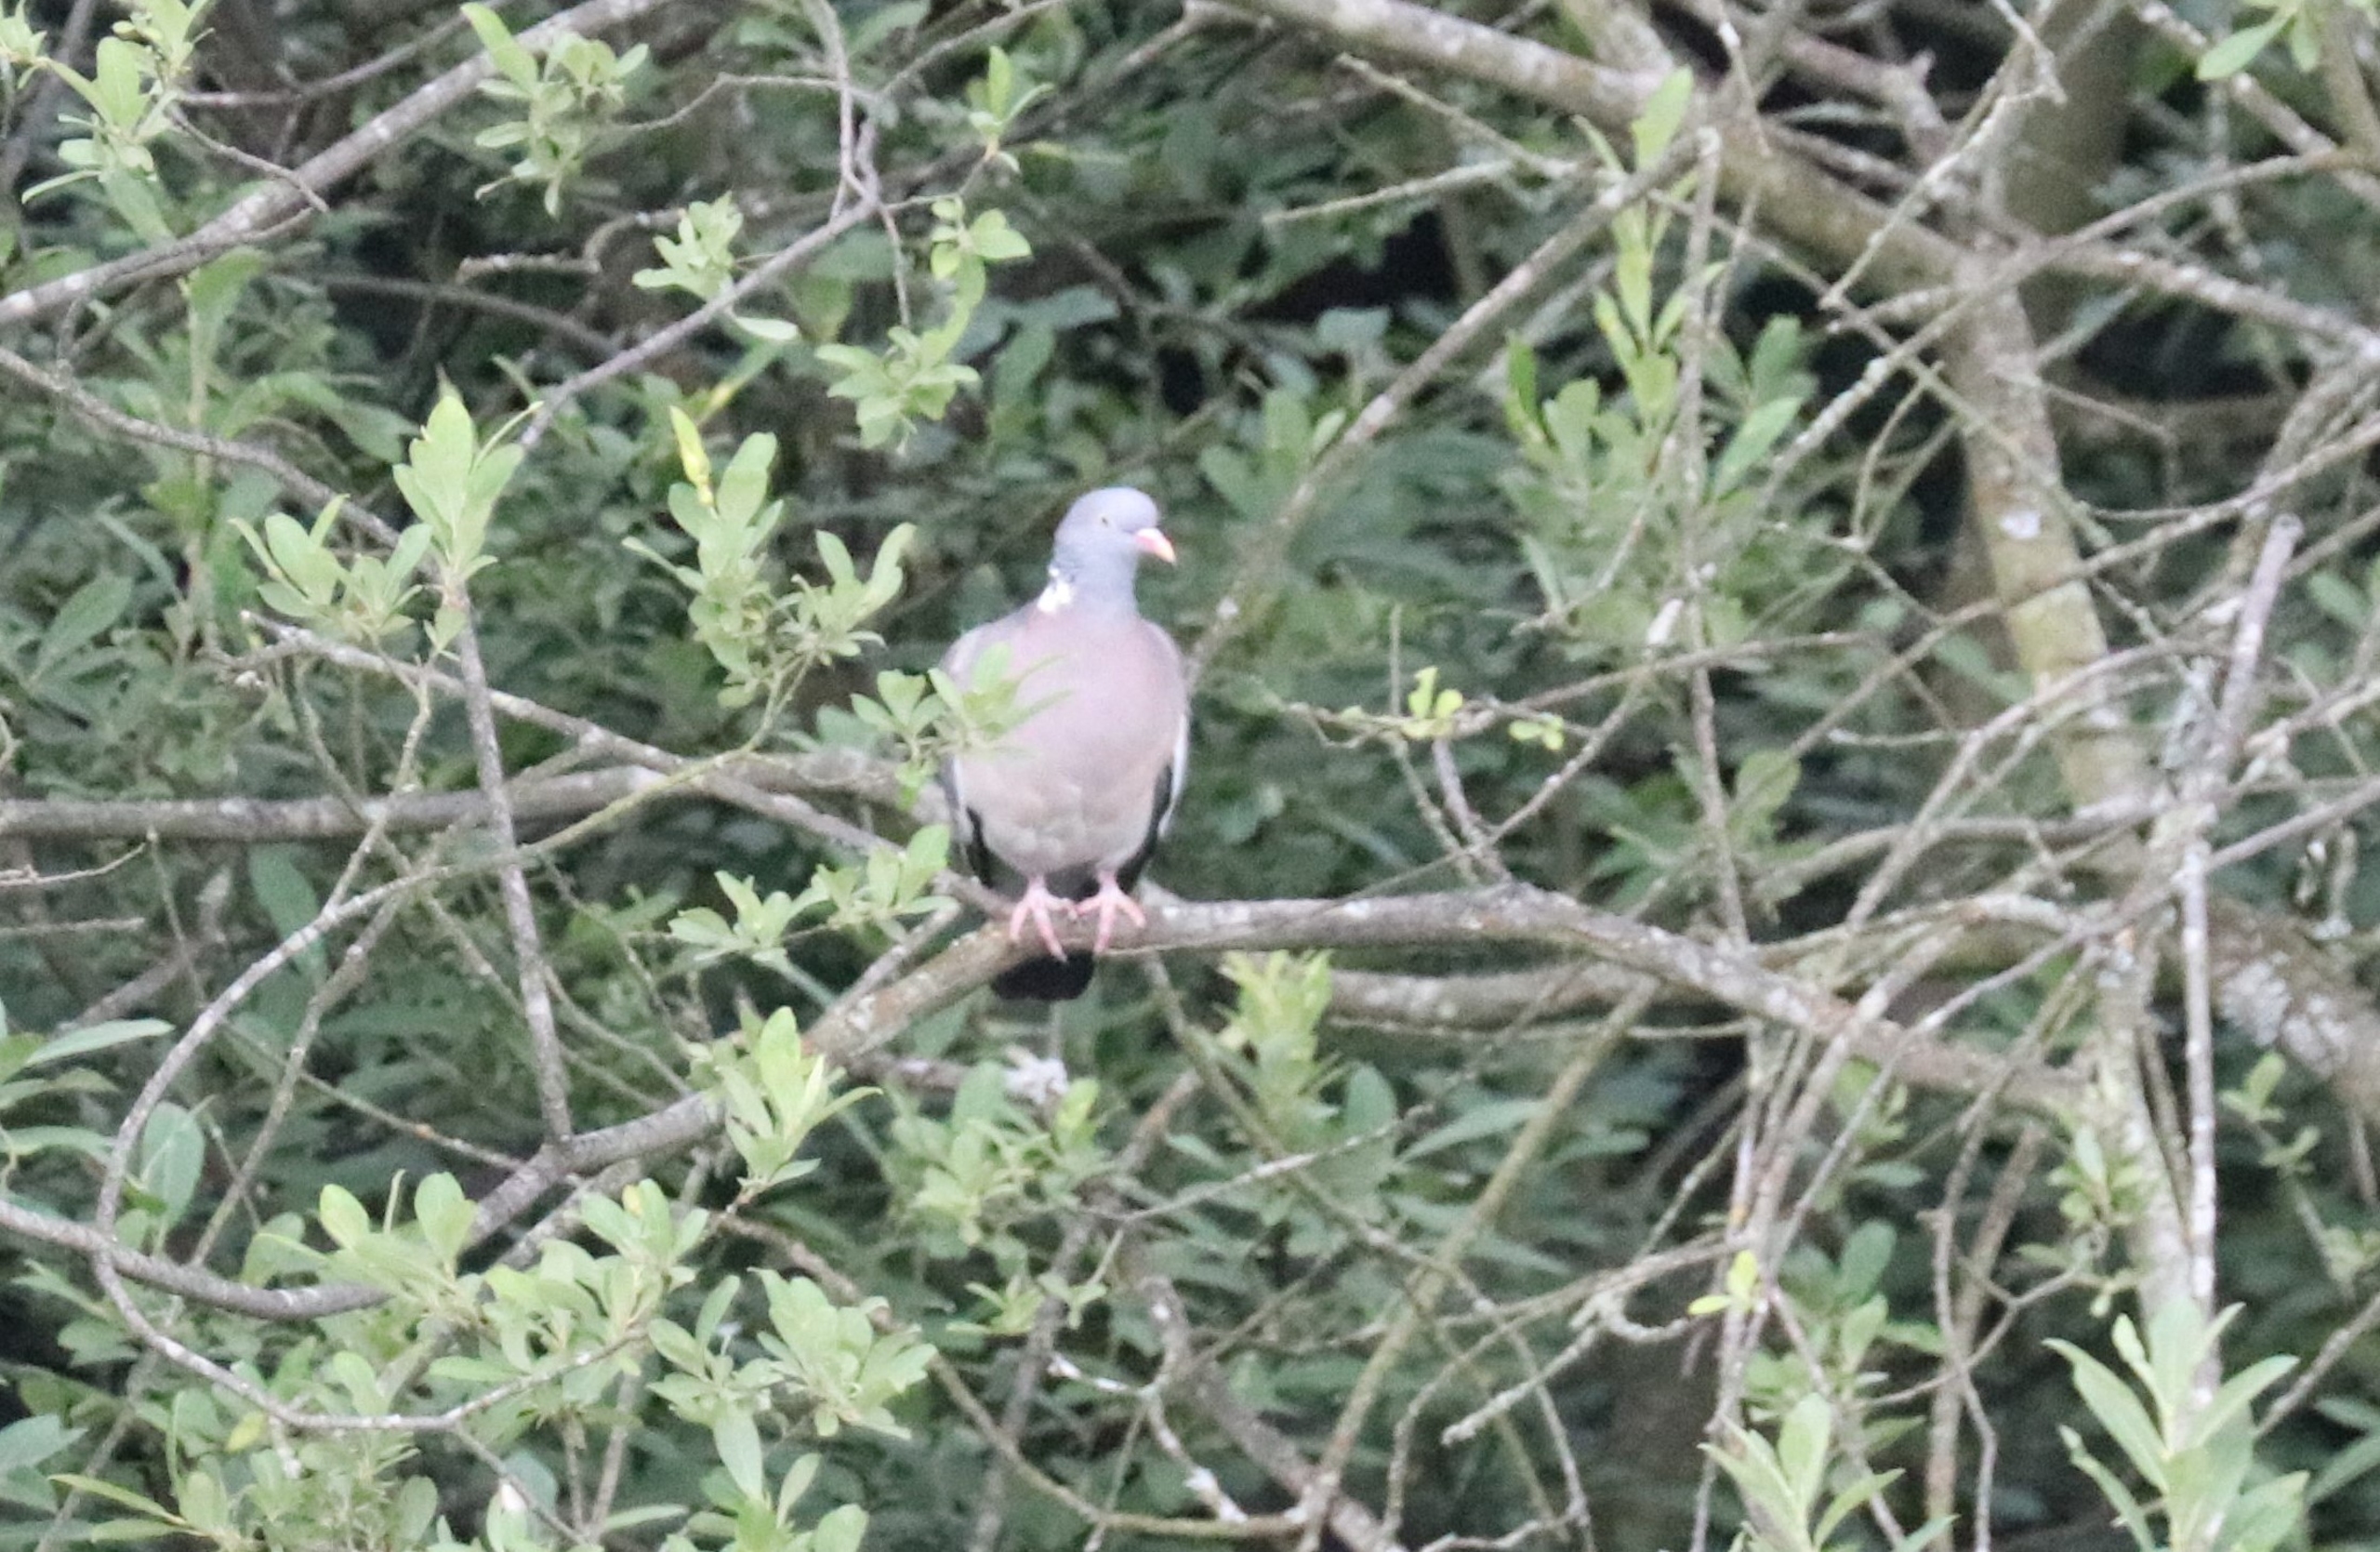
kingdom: Animalia
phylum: Chordata
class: Aves
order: Columbiformes
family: Columbidae
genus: Columba
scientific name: Columba palumbus
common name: Ringdue
